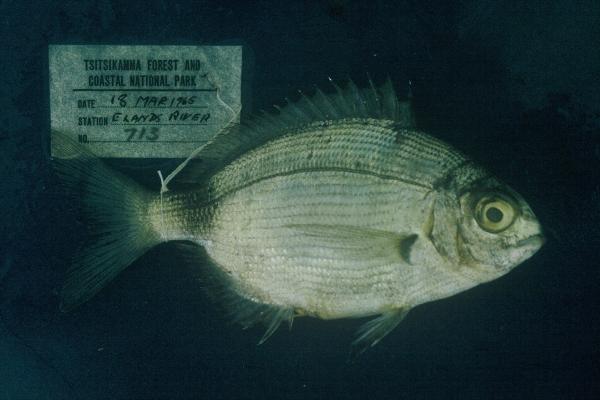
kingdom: Animalia
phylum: Chordata
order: Perciformes
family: Sparidae
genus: Diplodus
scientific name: Diplodus capensis
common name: Blacktail
